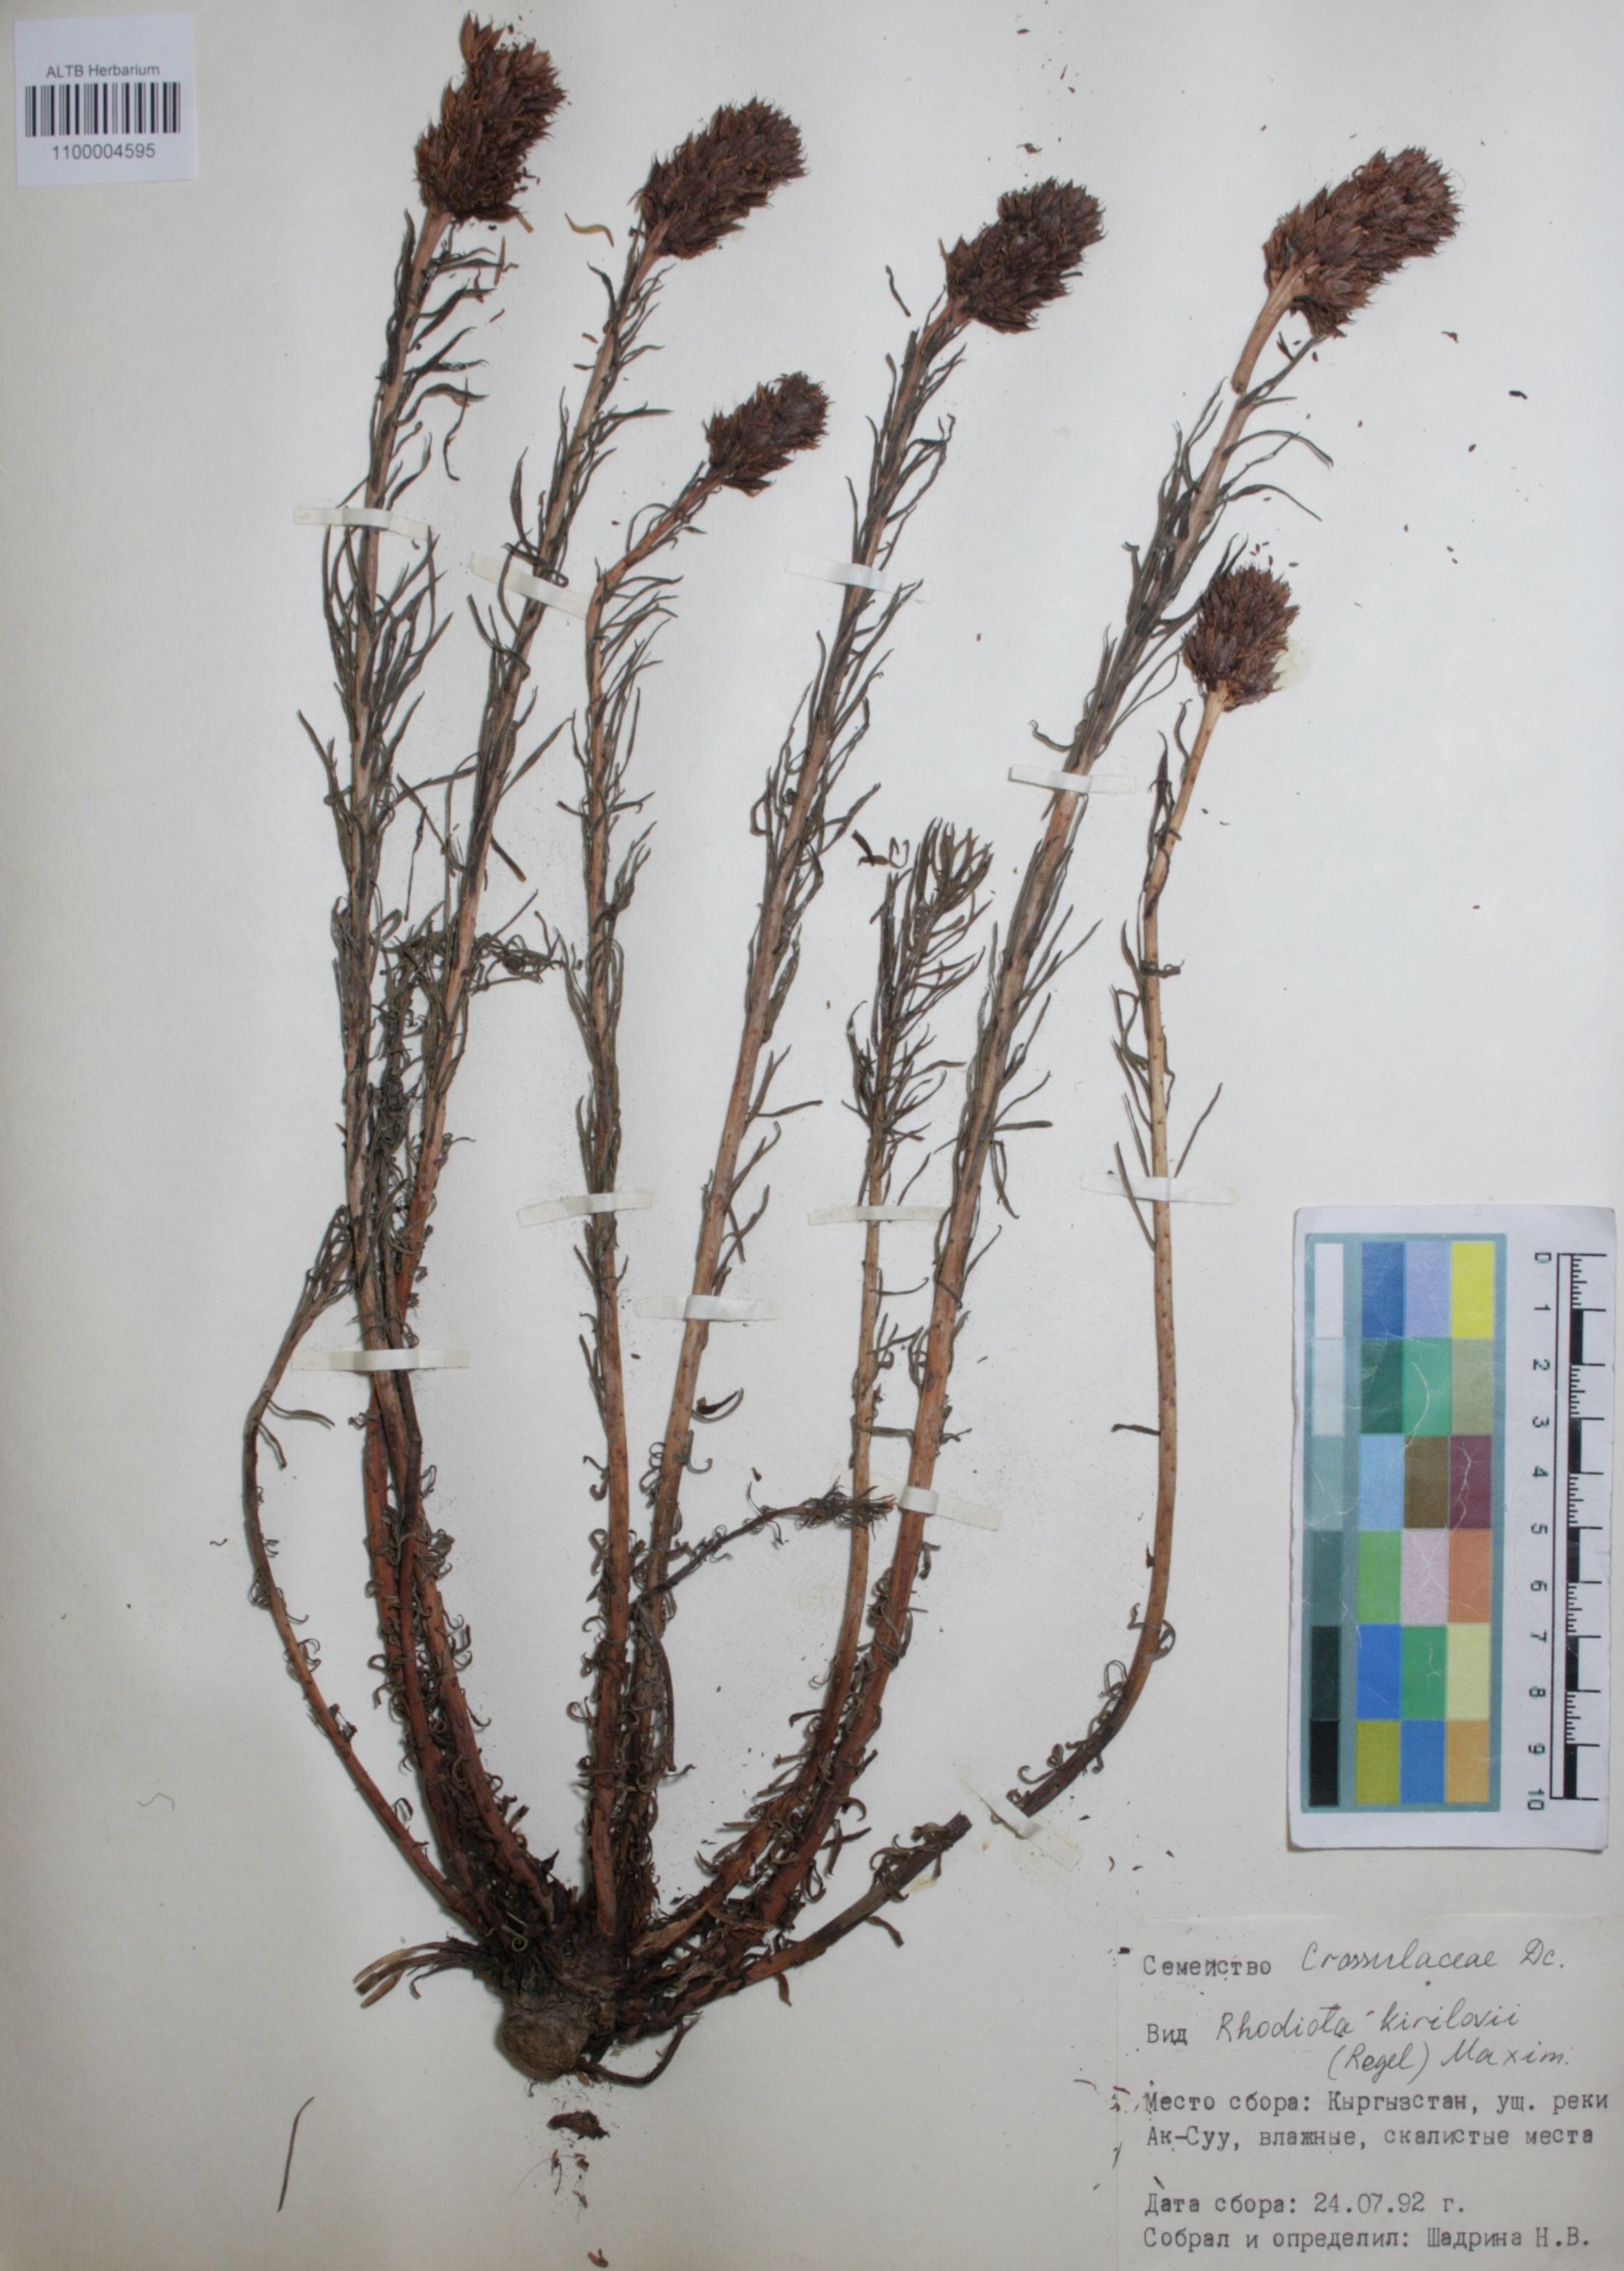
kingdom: Plantae
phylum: Tracheophyta
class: Magnoliopsida
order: Saxifragales
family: Crassulaceae
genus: Rhodiola
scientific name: Rhodiola kirilowii
